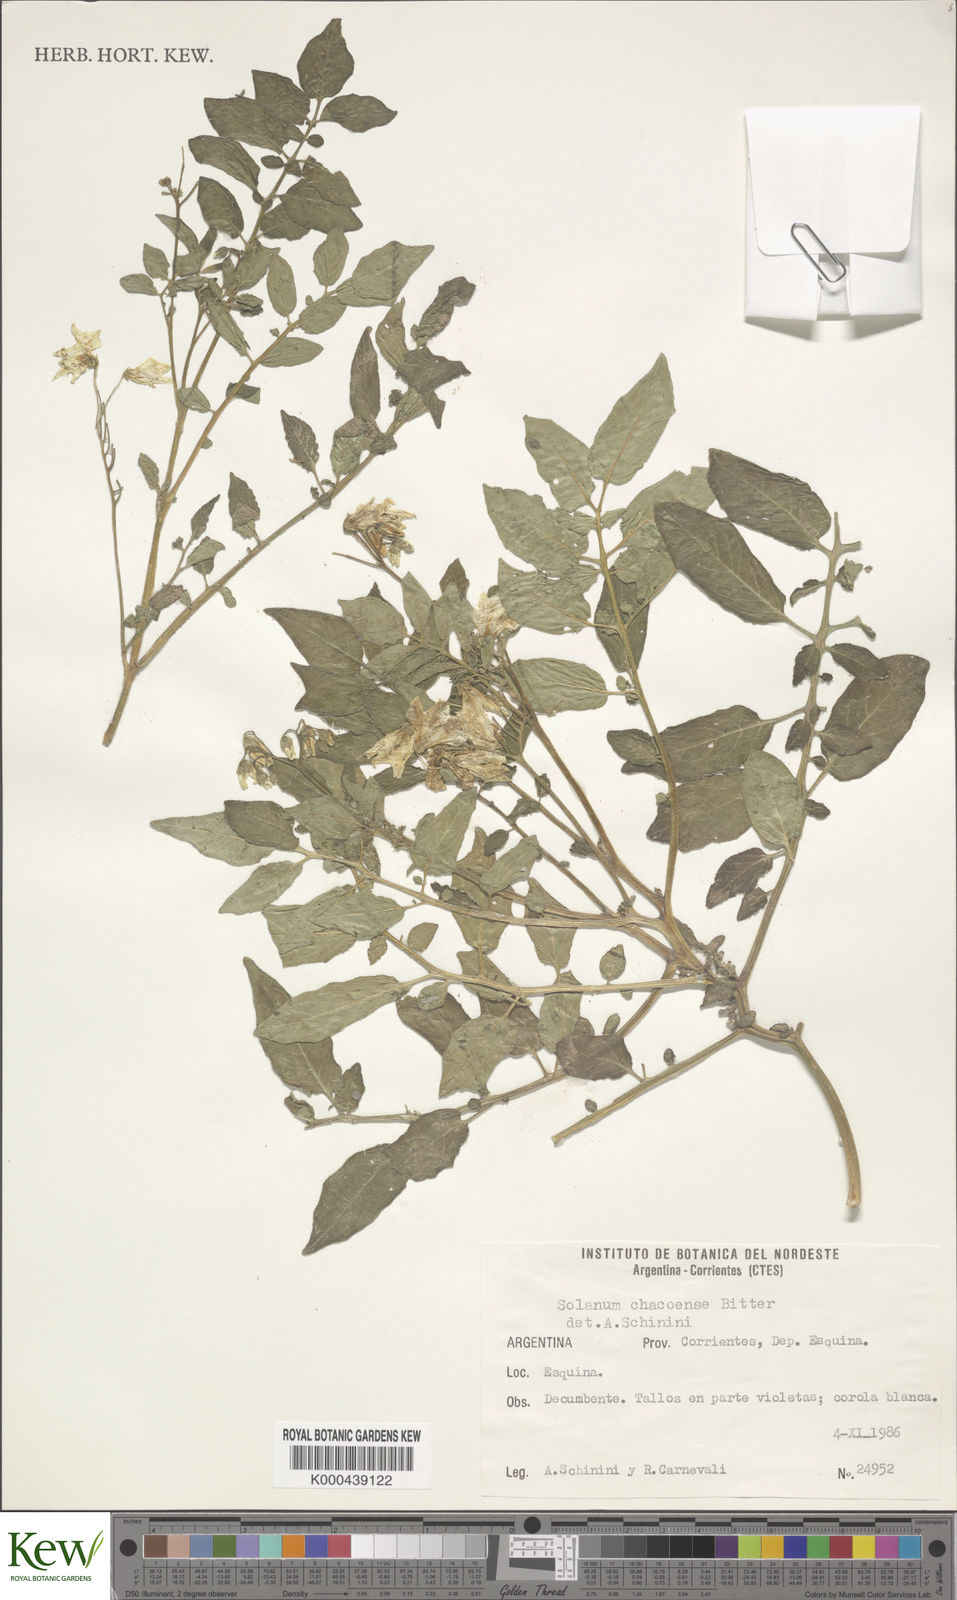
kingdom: Plantae
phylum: Tracheophyta
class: Magnoliopsida
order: Solanales
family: Solanaceae
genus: Solanum
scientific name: Solanum chacoense
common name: Chaco potato
